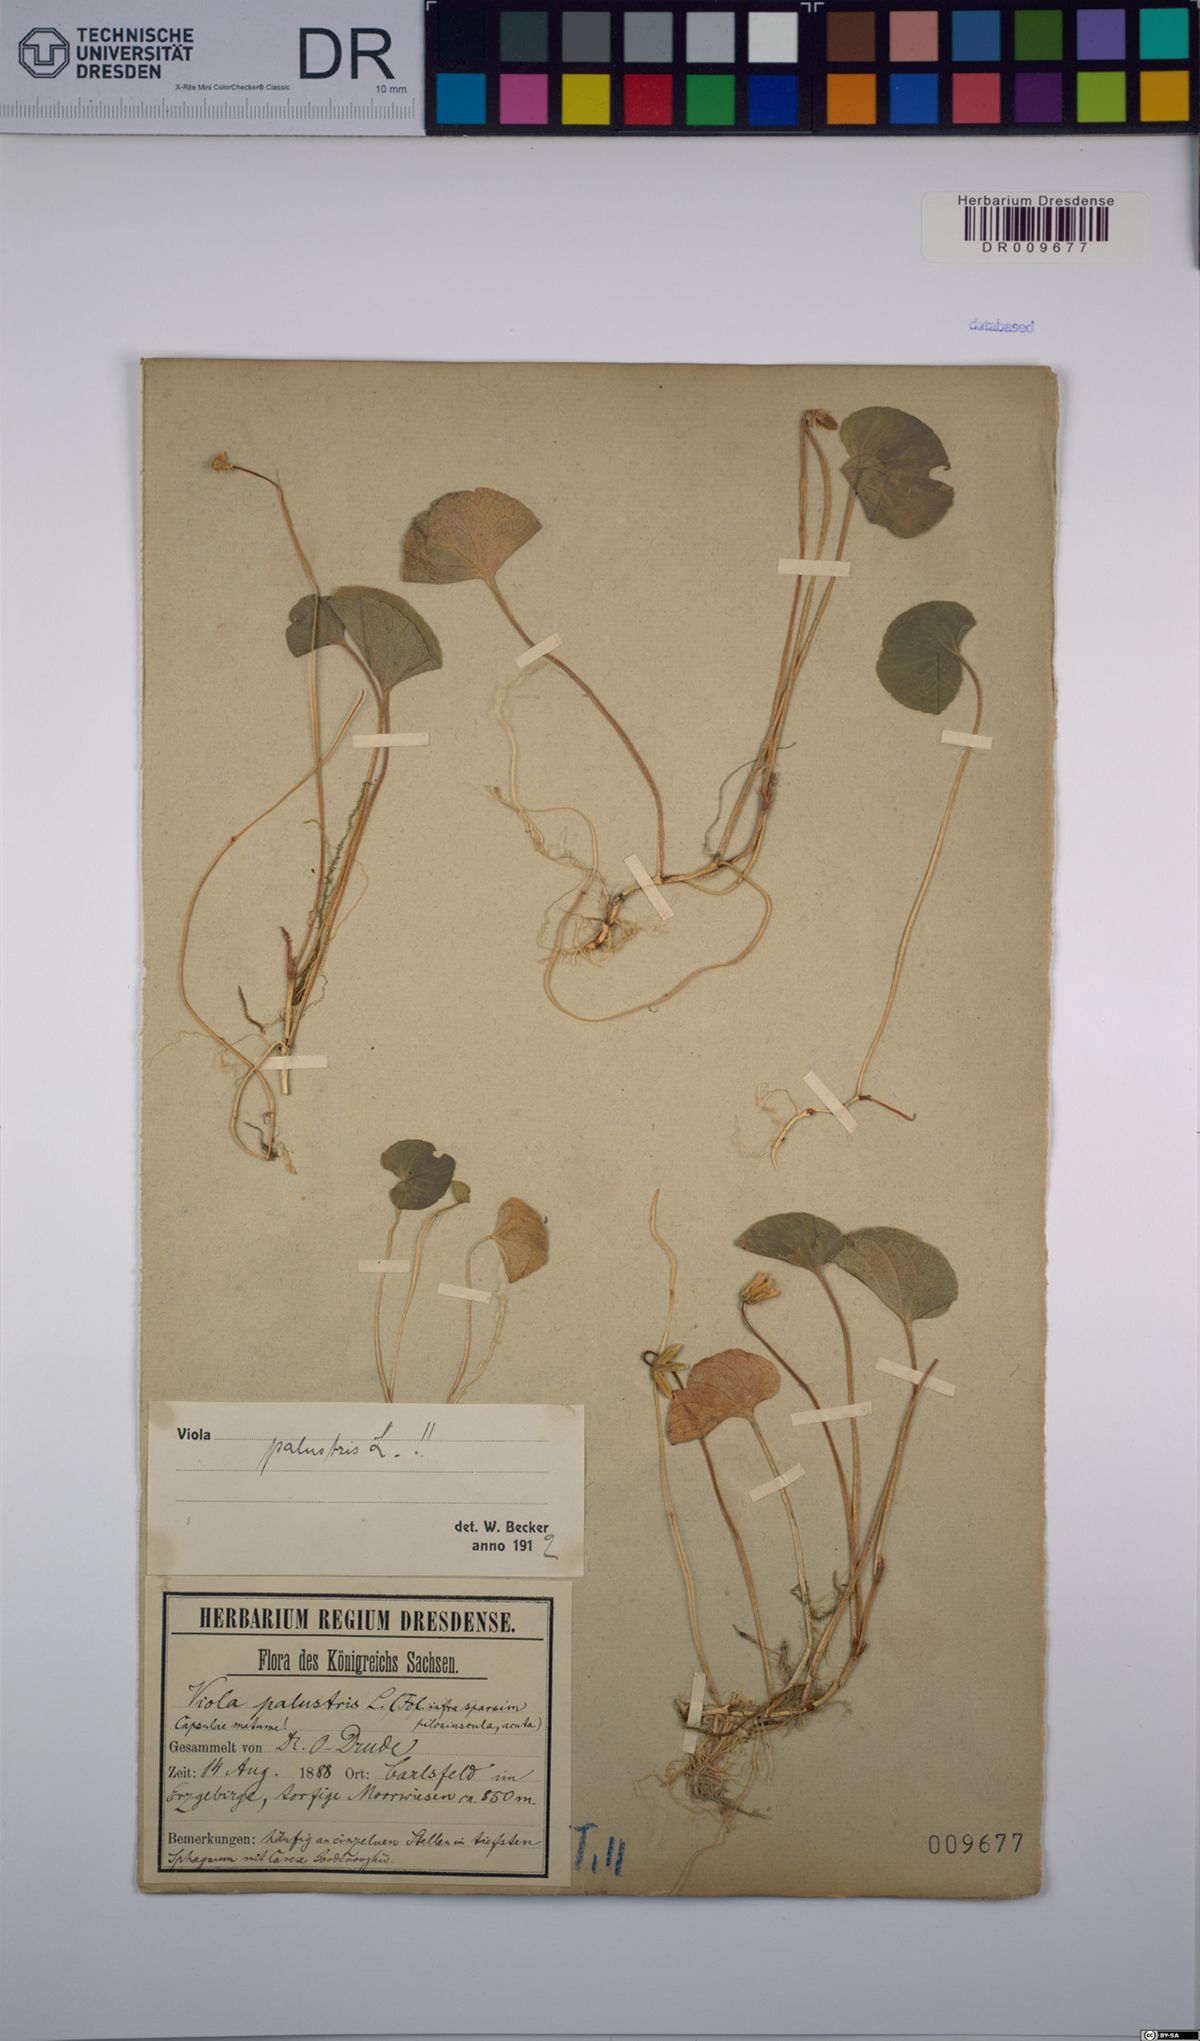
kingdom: Plantae
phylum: Tracheophyta
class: Magnoliopsida
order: Malpighiales
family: Violaceae
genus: Viola
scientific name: Viola palustris
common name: Marsh violet
